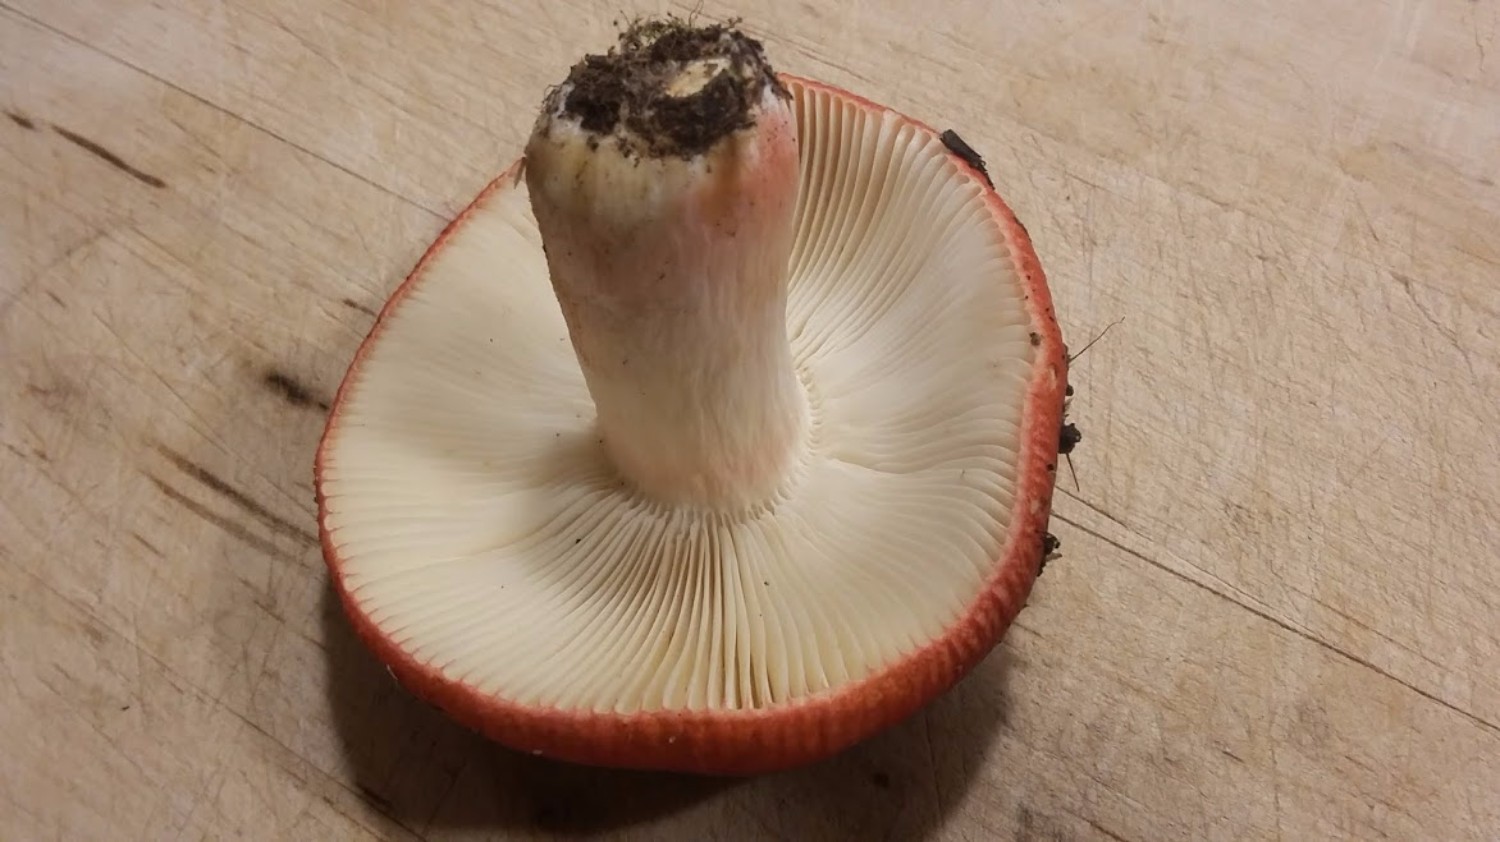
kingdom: Fungi
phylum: Basidiomycota
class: Agaricomycetes
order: Russulales
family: Russulaceae
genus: Russula
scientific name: Russula xerampelina
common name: hummer-skørhat
